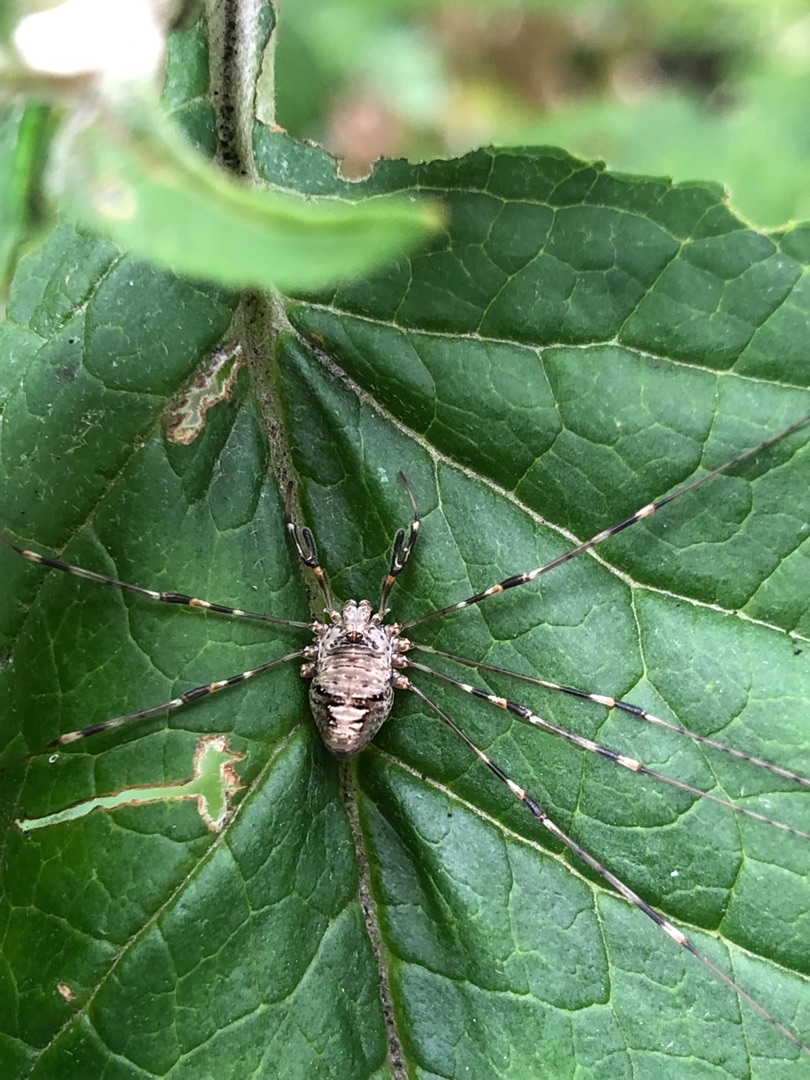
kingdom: Animalia
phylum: Arthropoda
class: Arachnida
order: Opiliones
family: Phalangiidae
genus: Dicranopalpus
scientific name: Dicranopalpus ramosus
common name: Gaffelmejer
